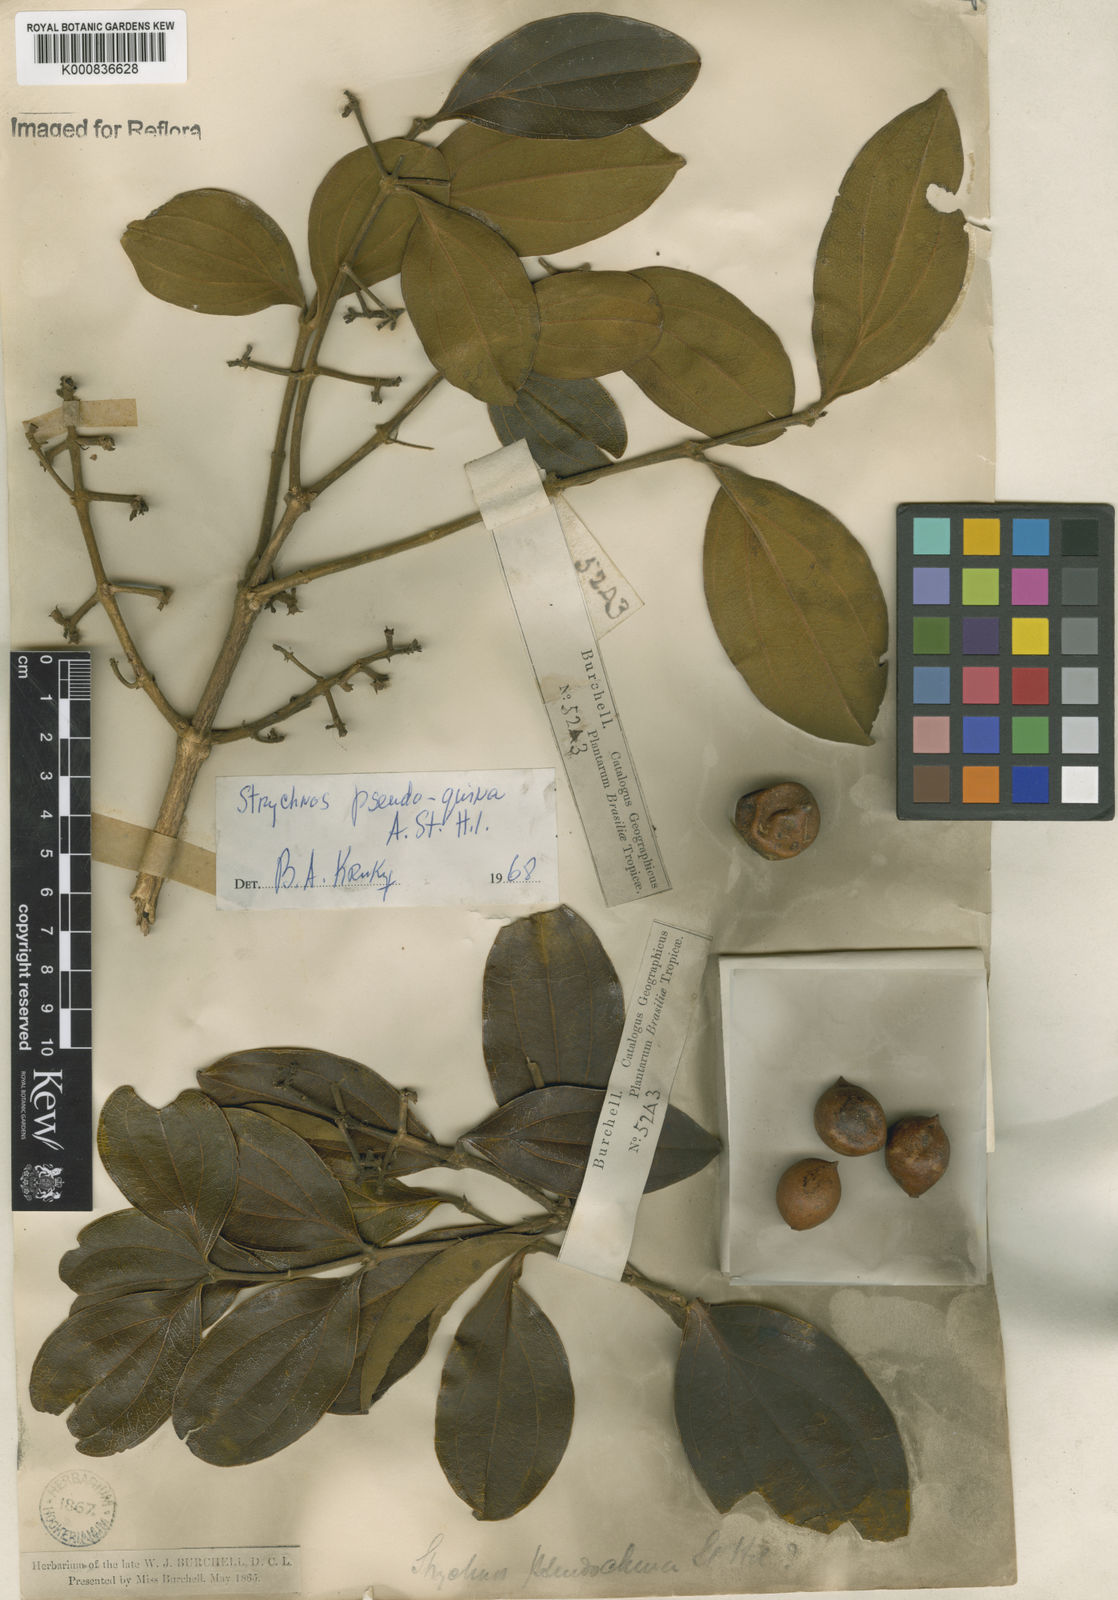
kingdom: Plantae
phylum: Tracheophyta
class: Magnoliopsida
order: Gentianales
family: Loganiaceae
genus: Strychnos
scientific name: Strychnos pseudoquina
